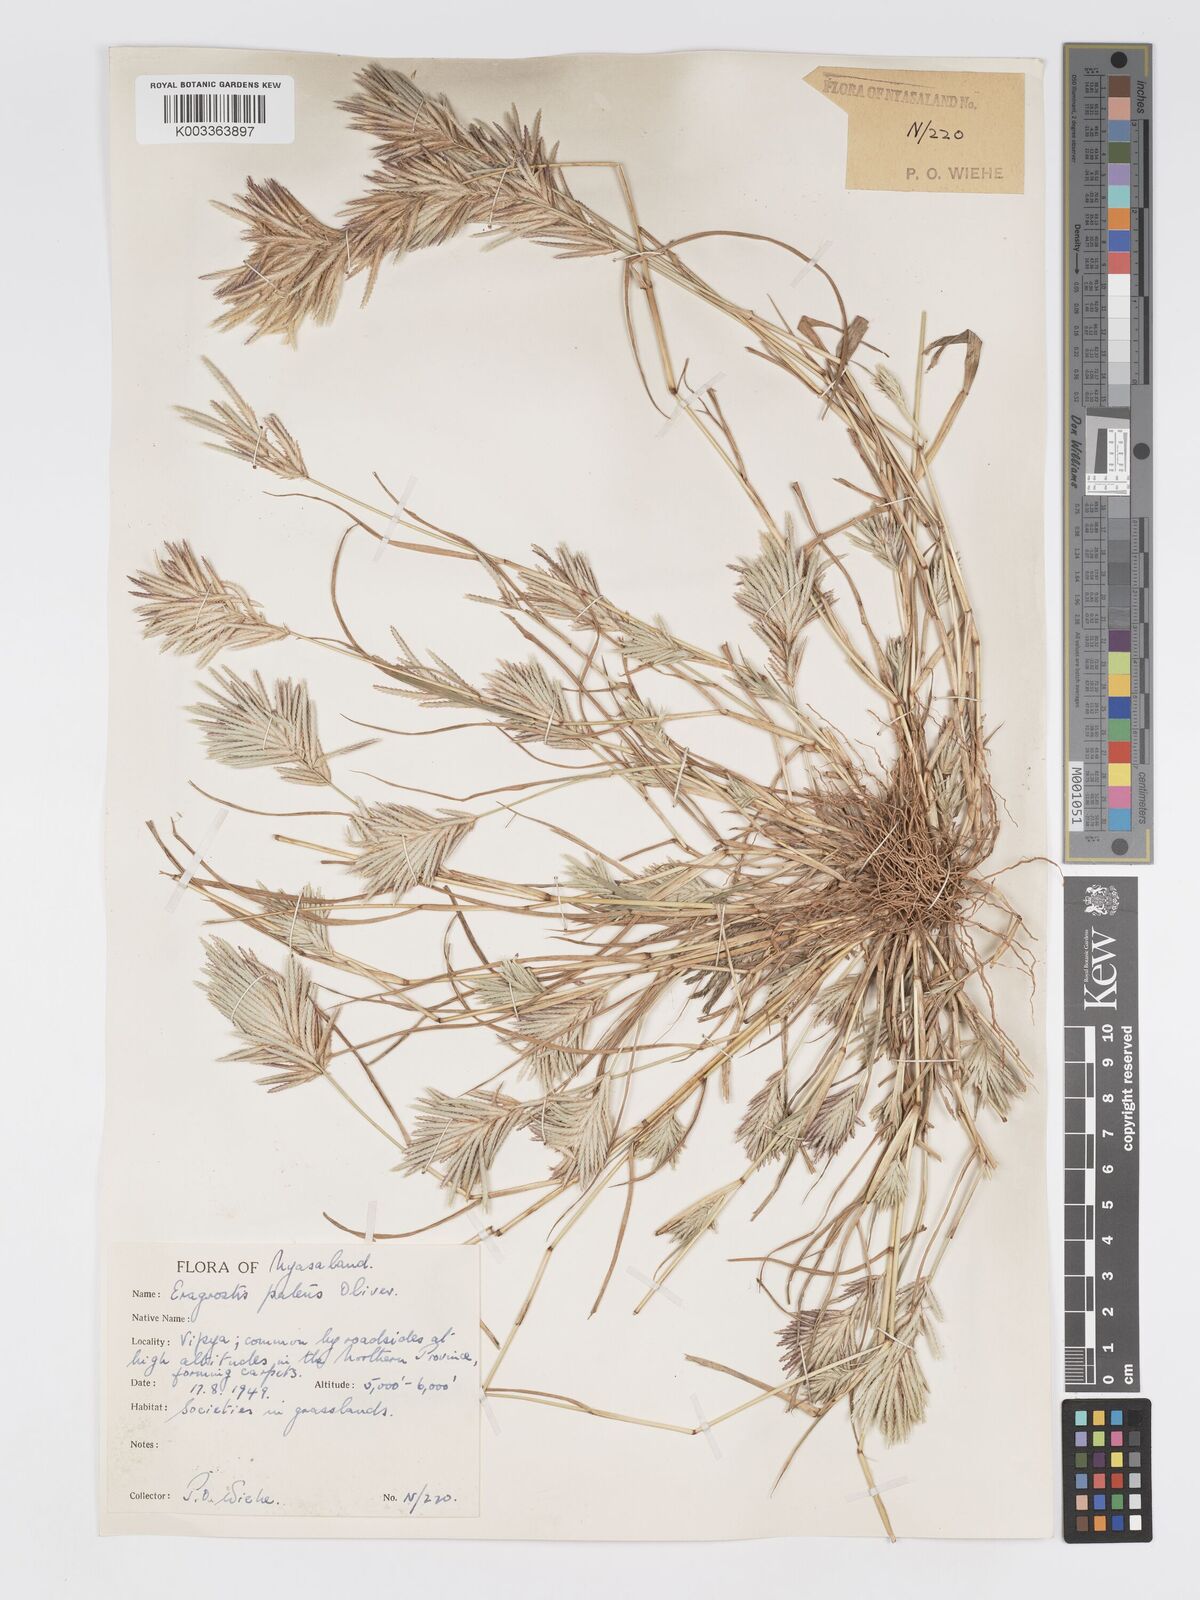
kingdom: Plantae
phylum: Tracheophyta
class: Liliopsida
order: Poales
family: Poaceae
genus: Eragrostis
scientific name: Eragrostis patens
